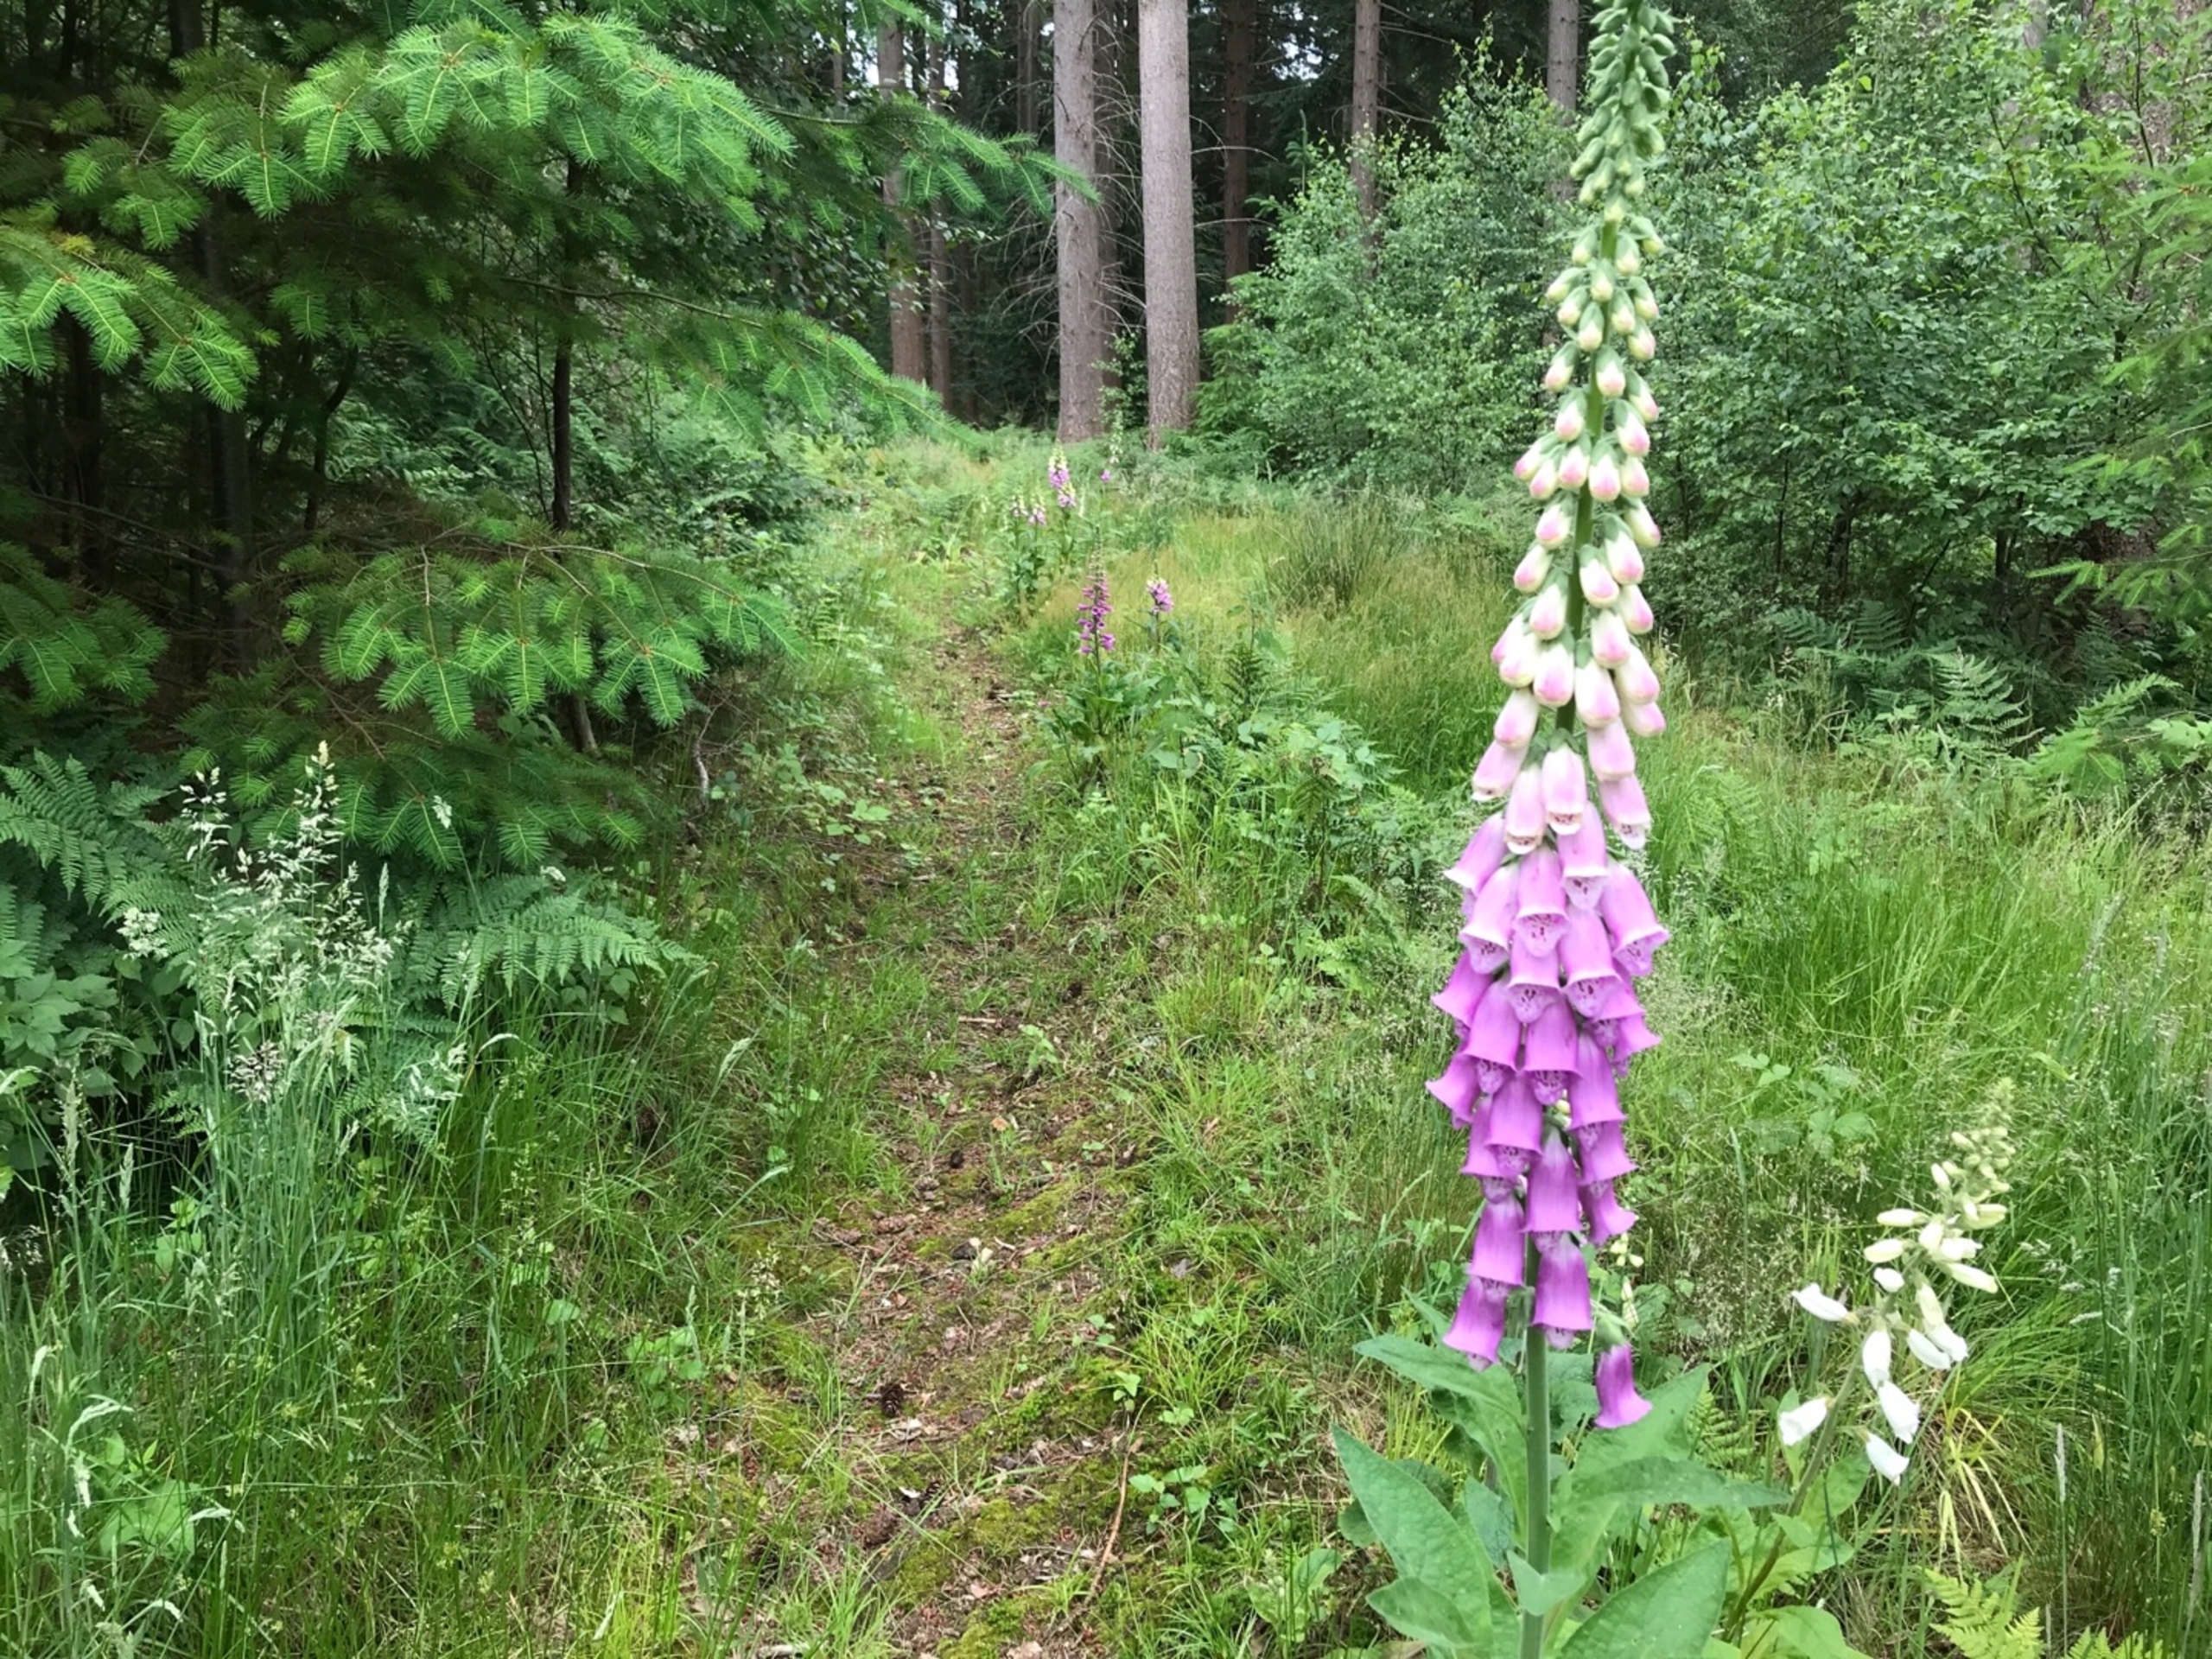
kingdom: Plantae
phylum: Tracheophyta
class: Magnoliopsida
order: Lamiales
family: Plantaginaceae
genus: Digitalis
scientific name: Digitalis purpurea
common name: Almindelig fingerbøl
